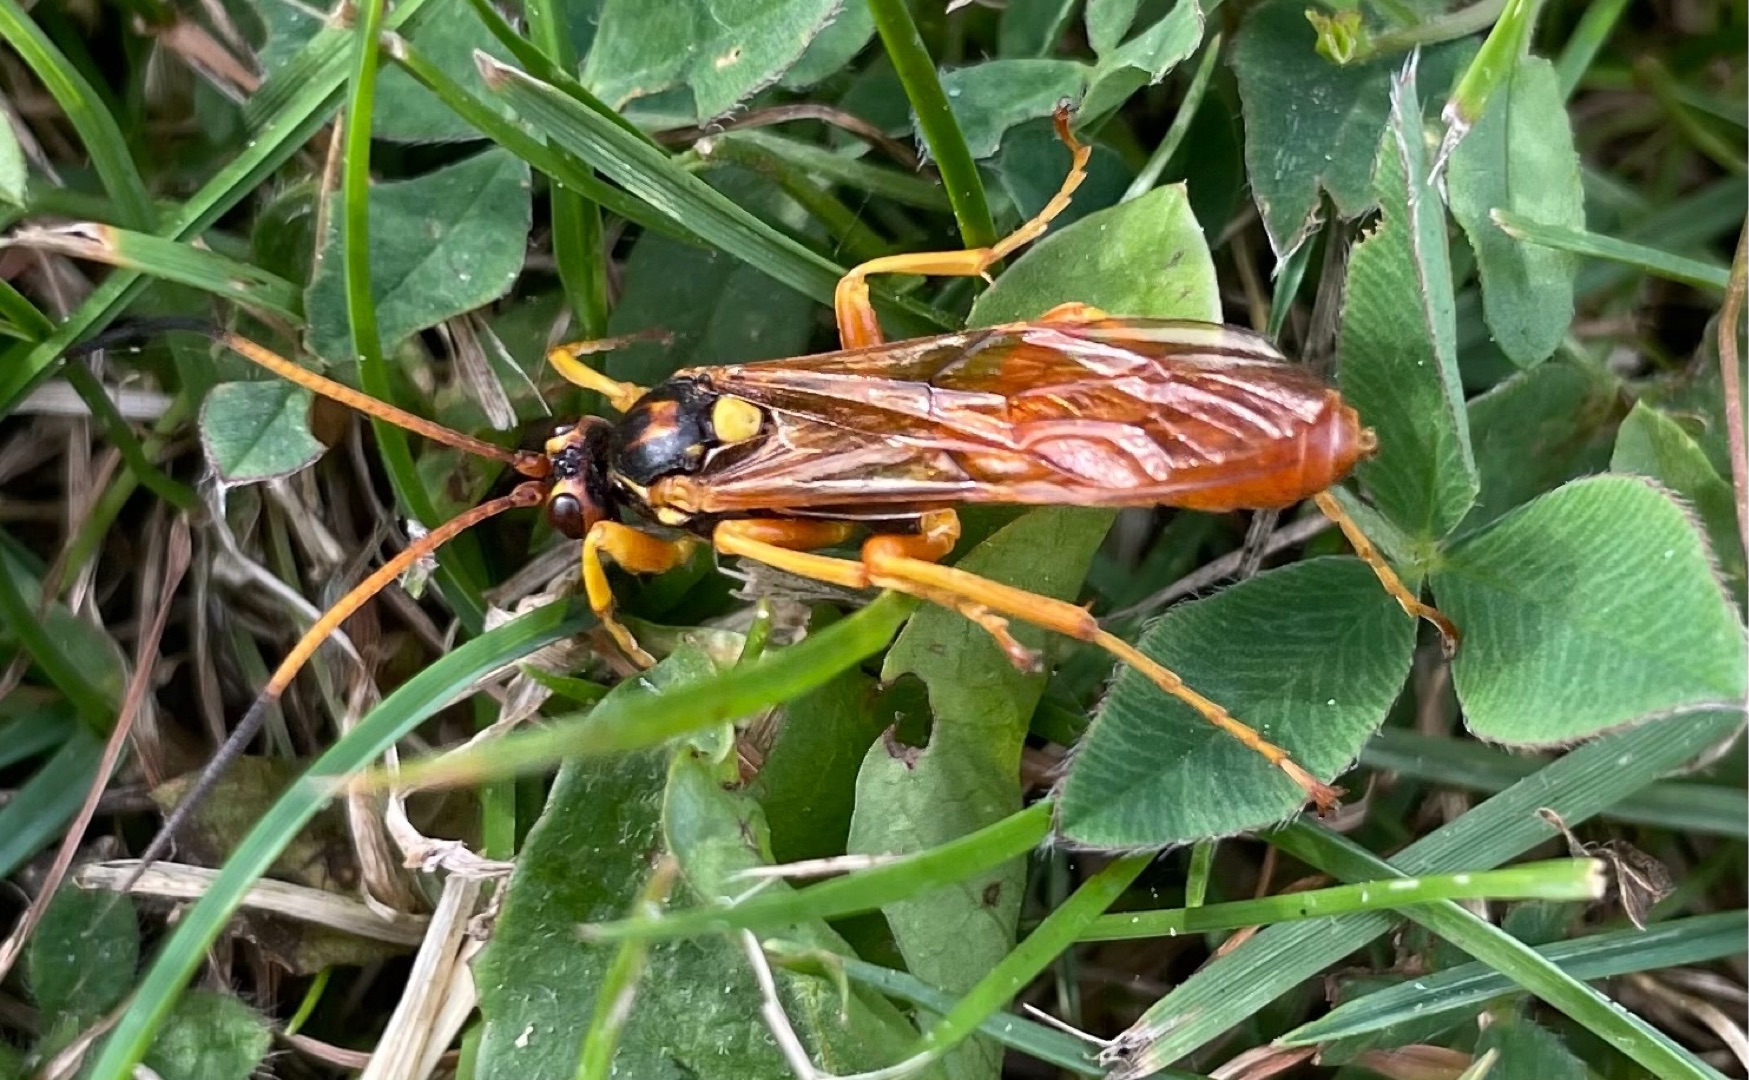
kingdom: Animalia
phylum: Arthropoda
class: Insecta
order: Hymenoptera
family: Ichneumonidae
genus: Callajoppa
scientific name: Callajoppa cirrogaster
